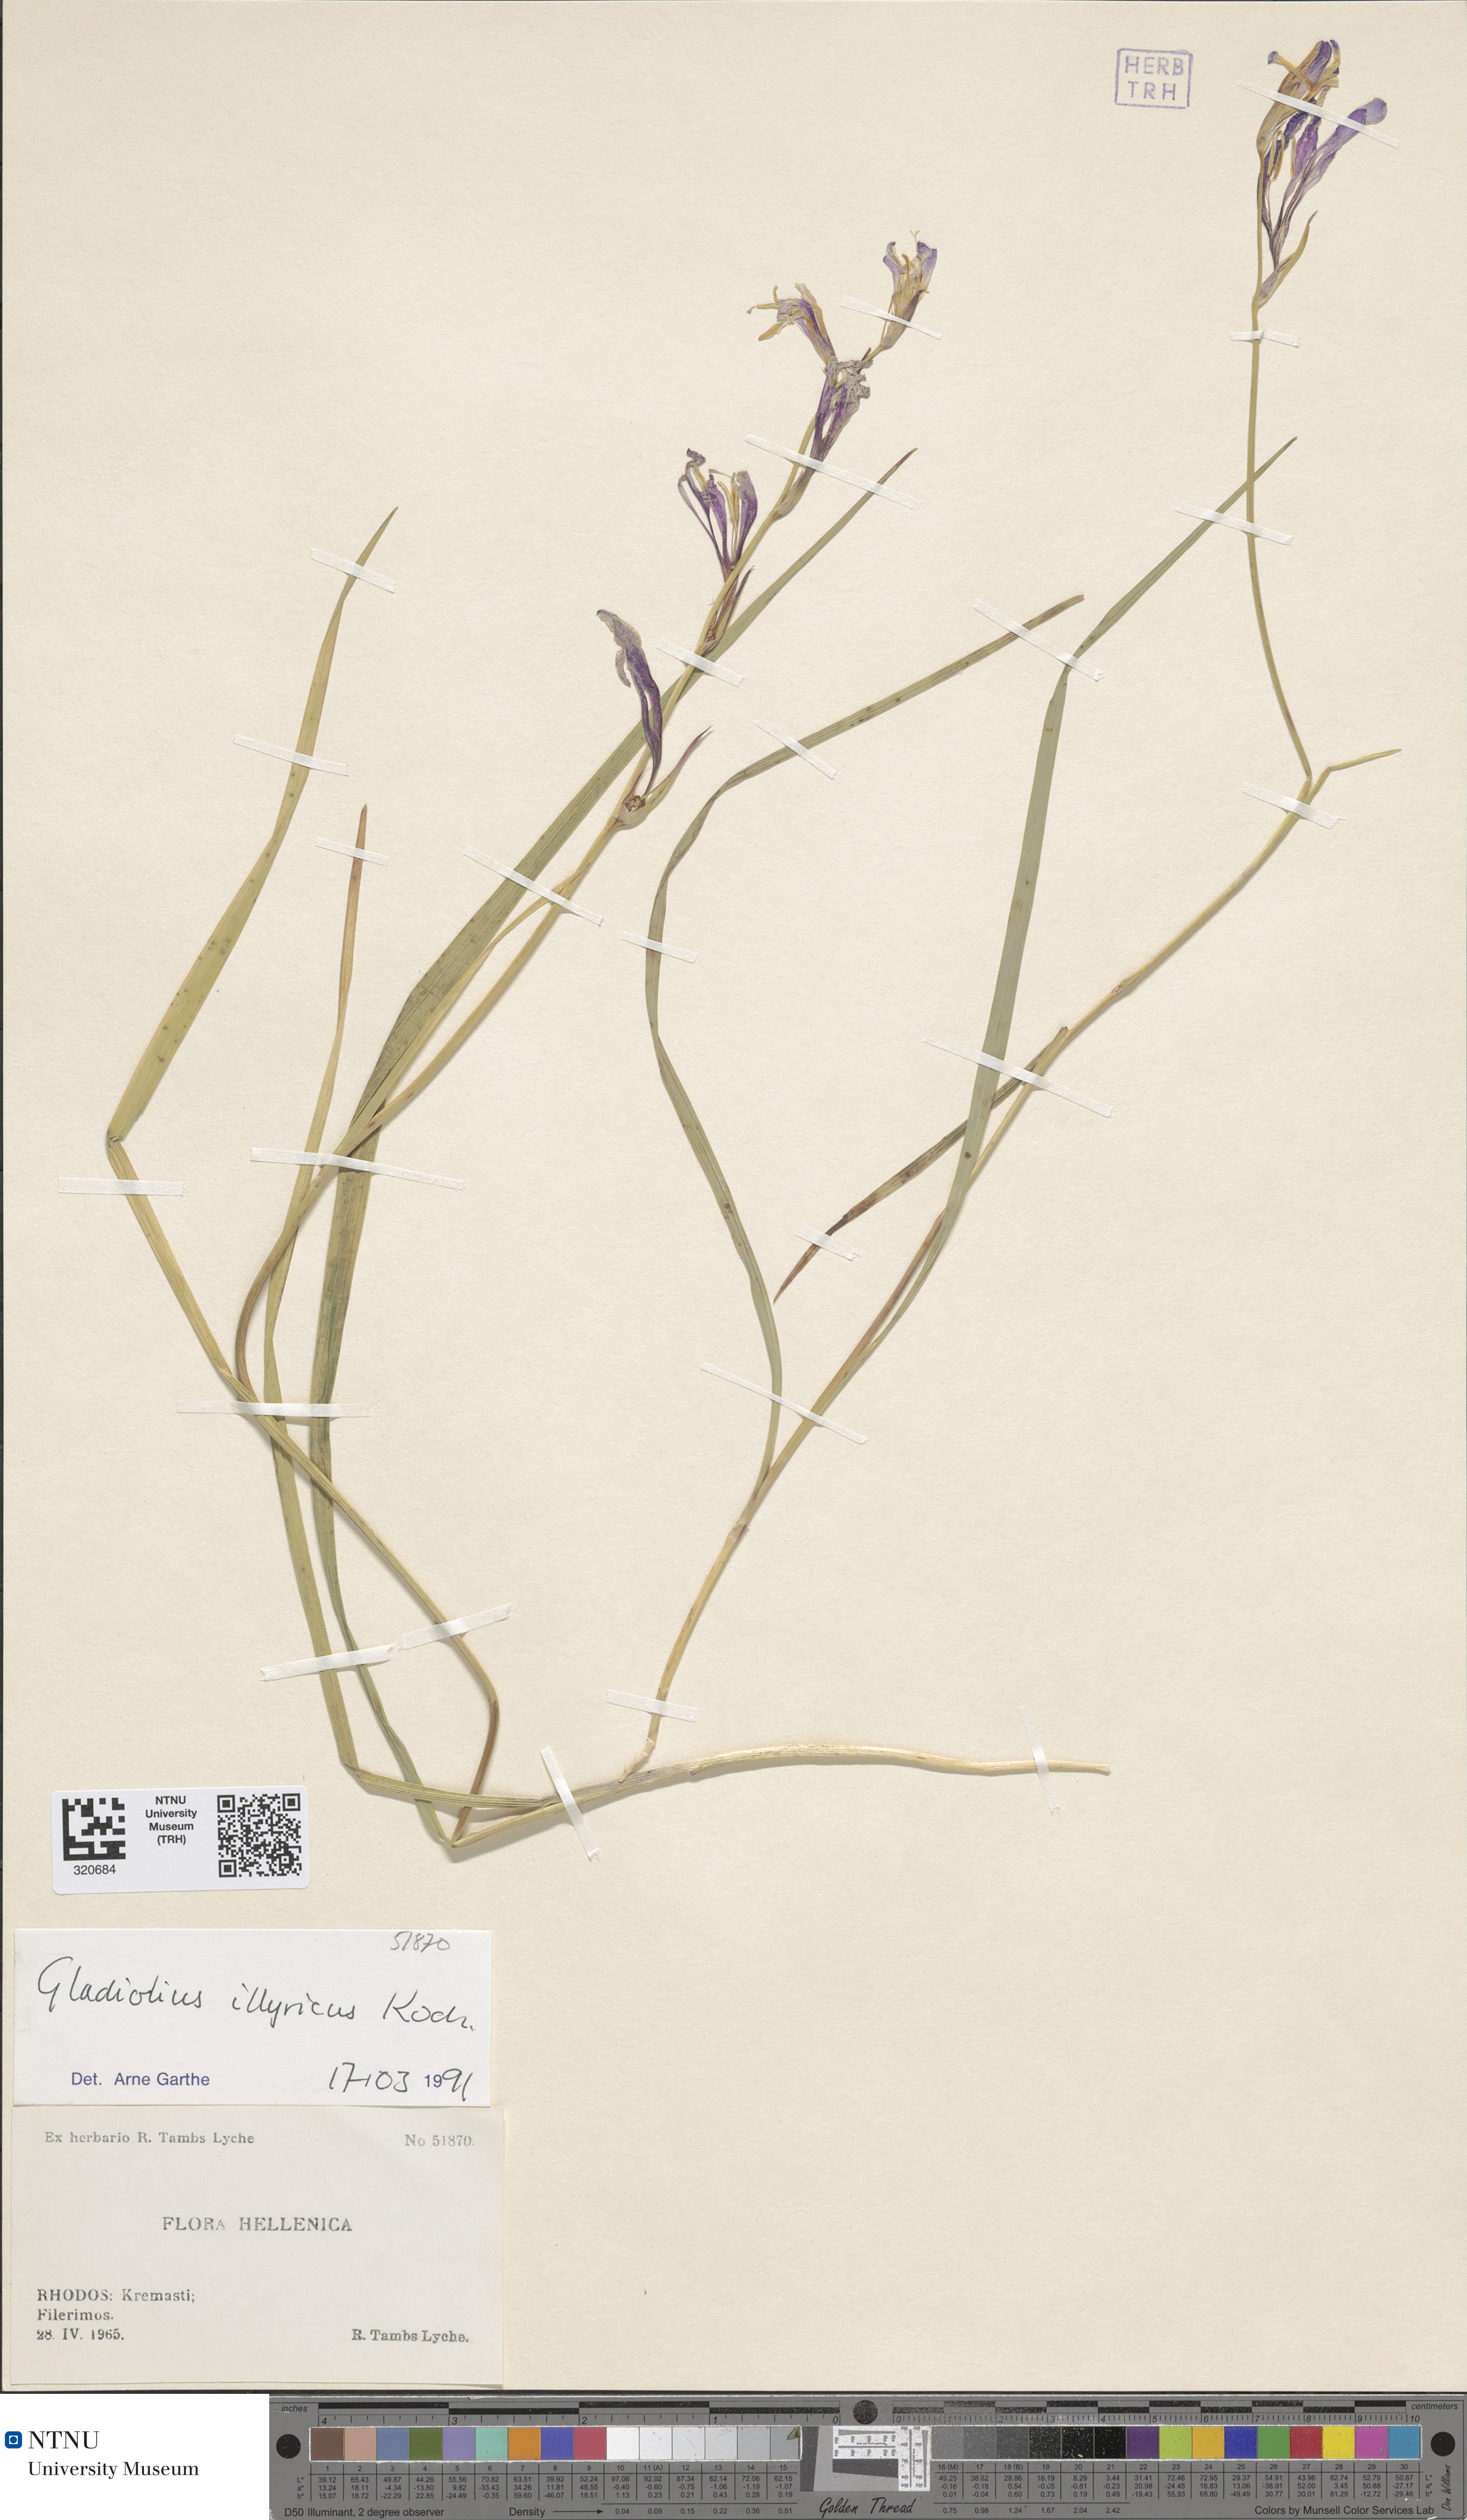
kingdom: Plantae
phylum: Tracheophyta
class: Liliopsida
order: Asparagales
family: Iridaceae
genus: Gladiolus
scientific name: Gladiolus illyricus
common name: Wild gladiolus
